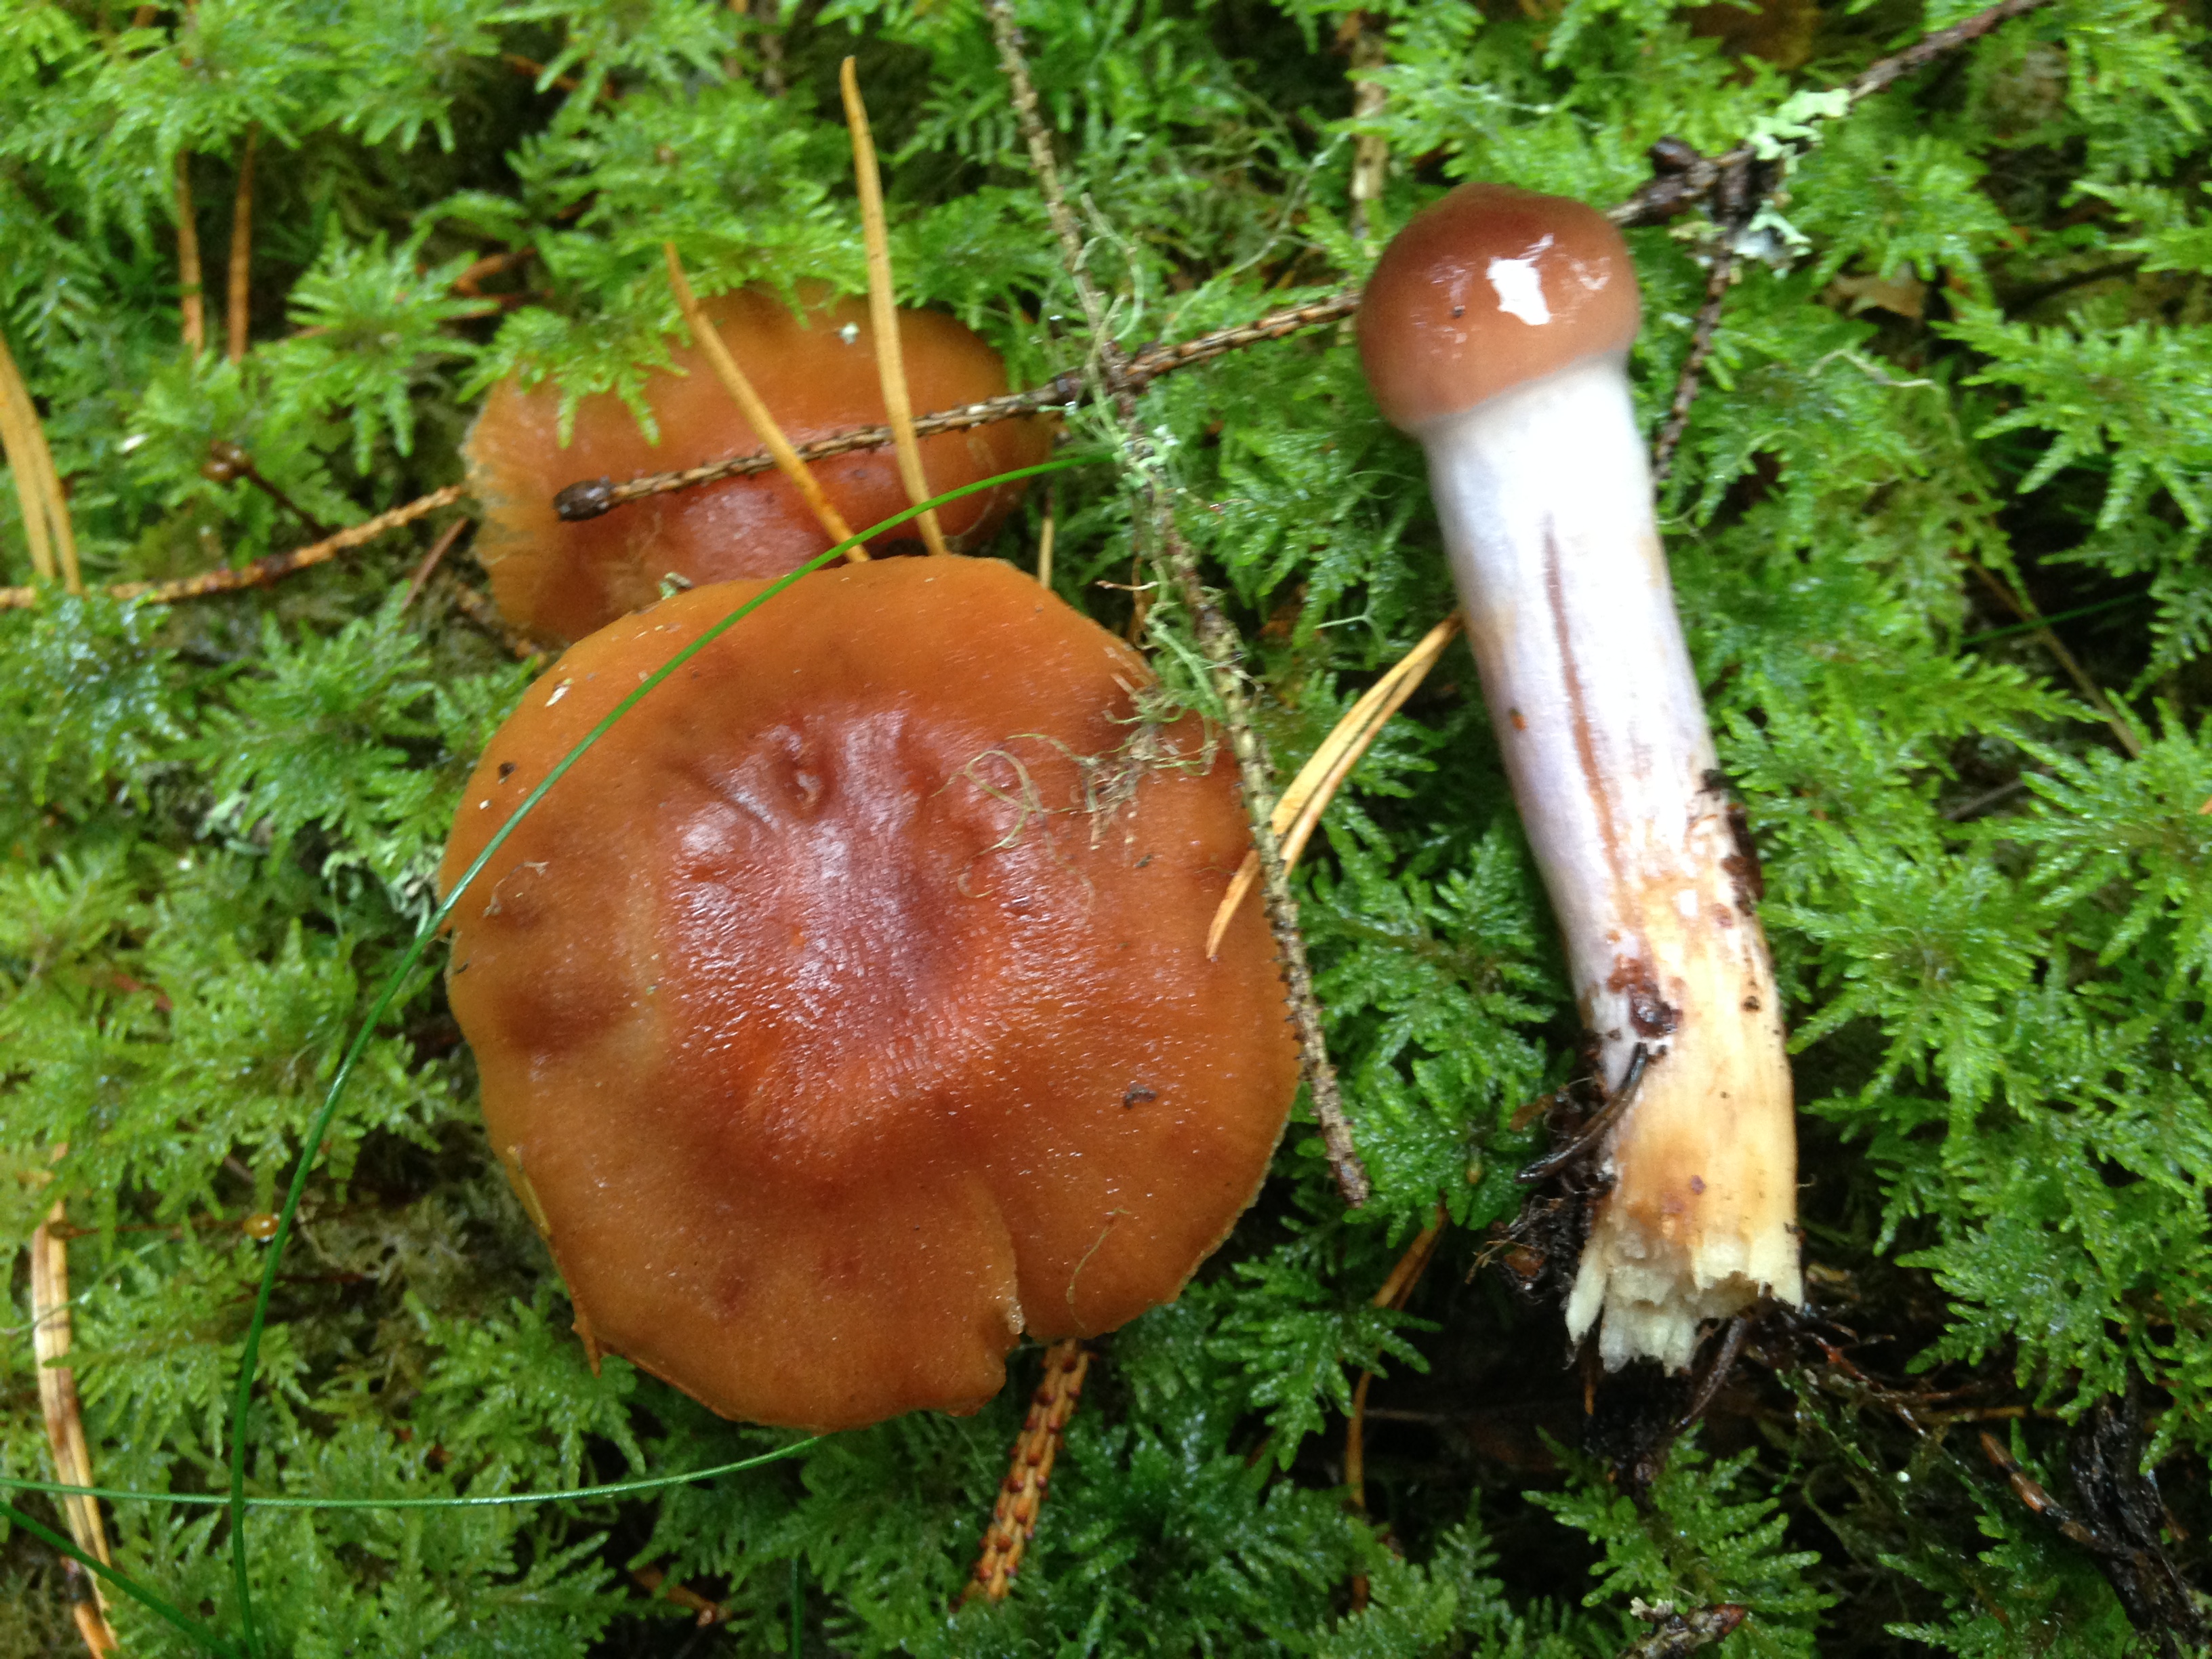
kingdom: Fungi
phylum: Basidiomycota
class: Agaricomycetes
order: Agaricales
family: Cortinariaceae
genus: Cortinarius
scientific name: Cortinarius collinitus
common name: Blue-girdled webcap
